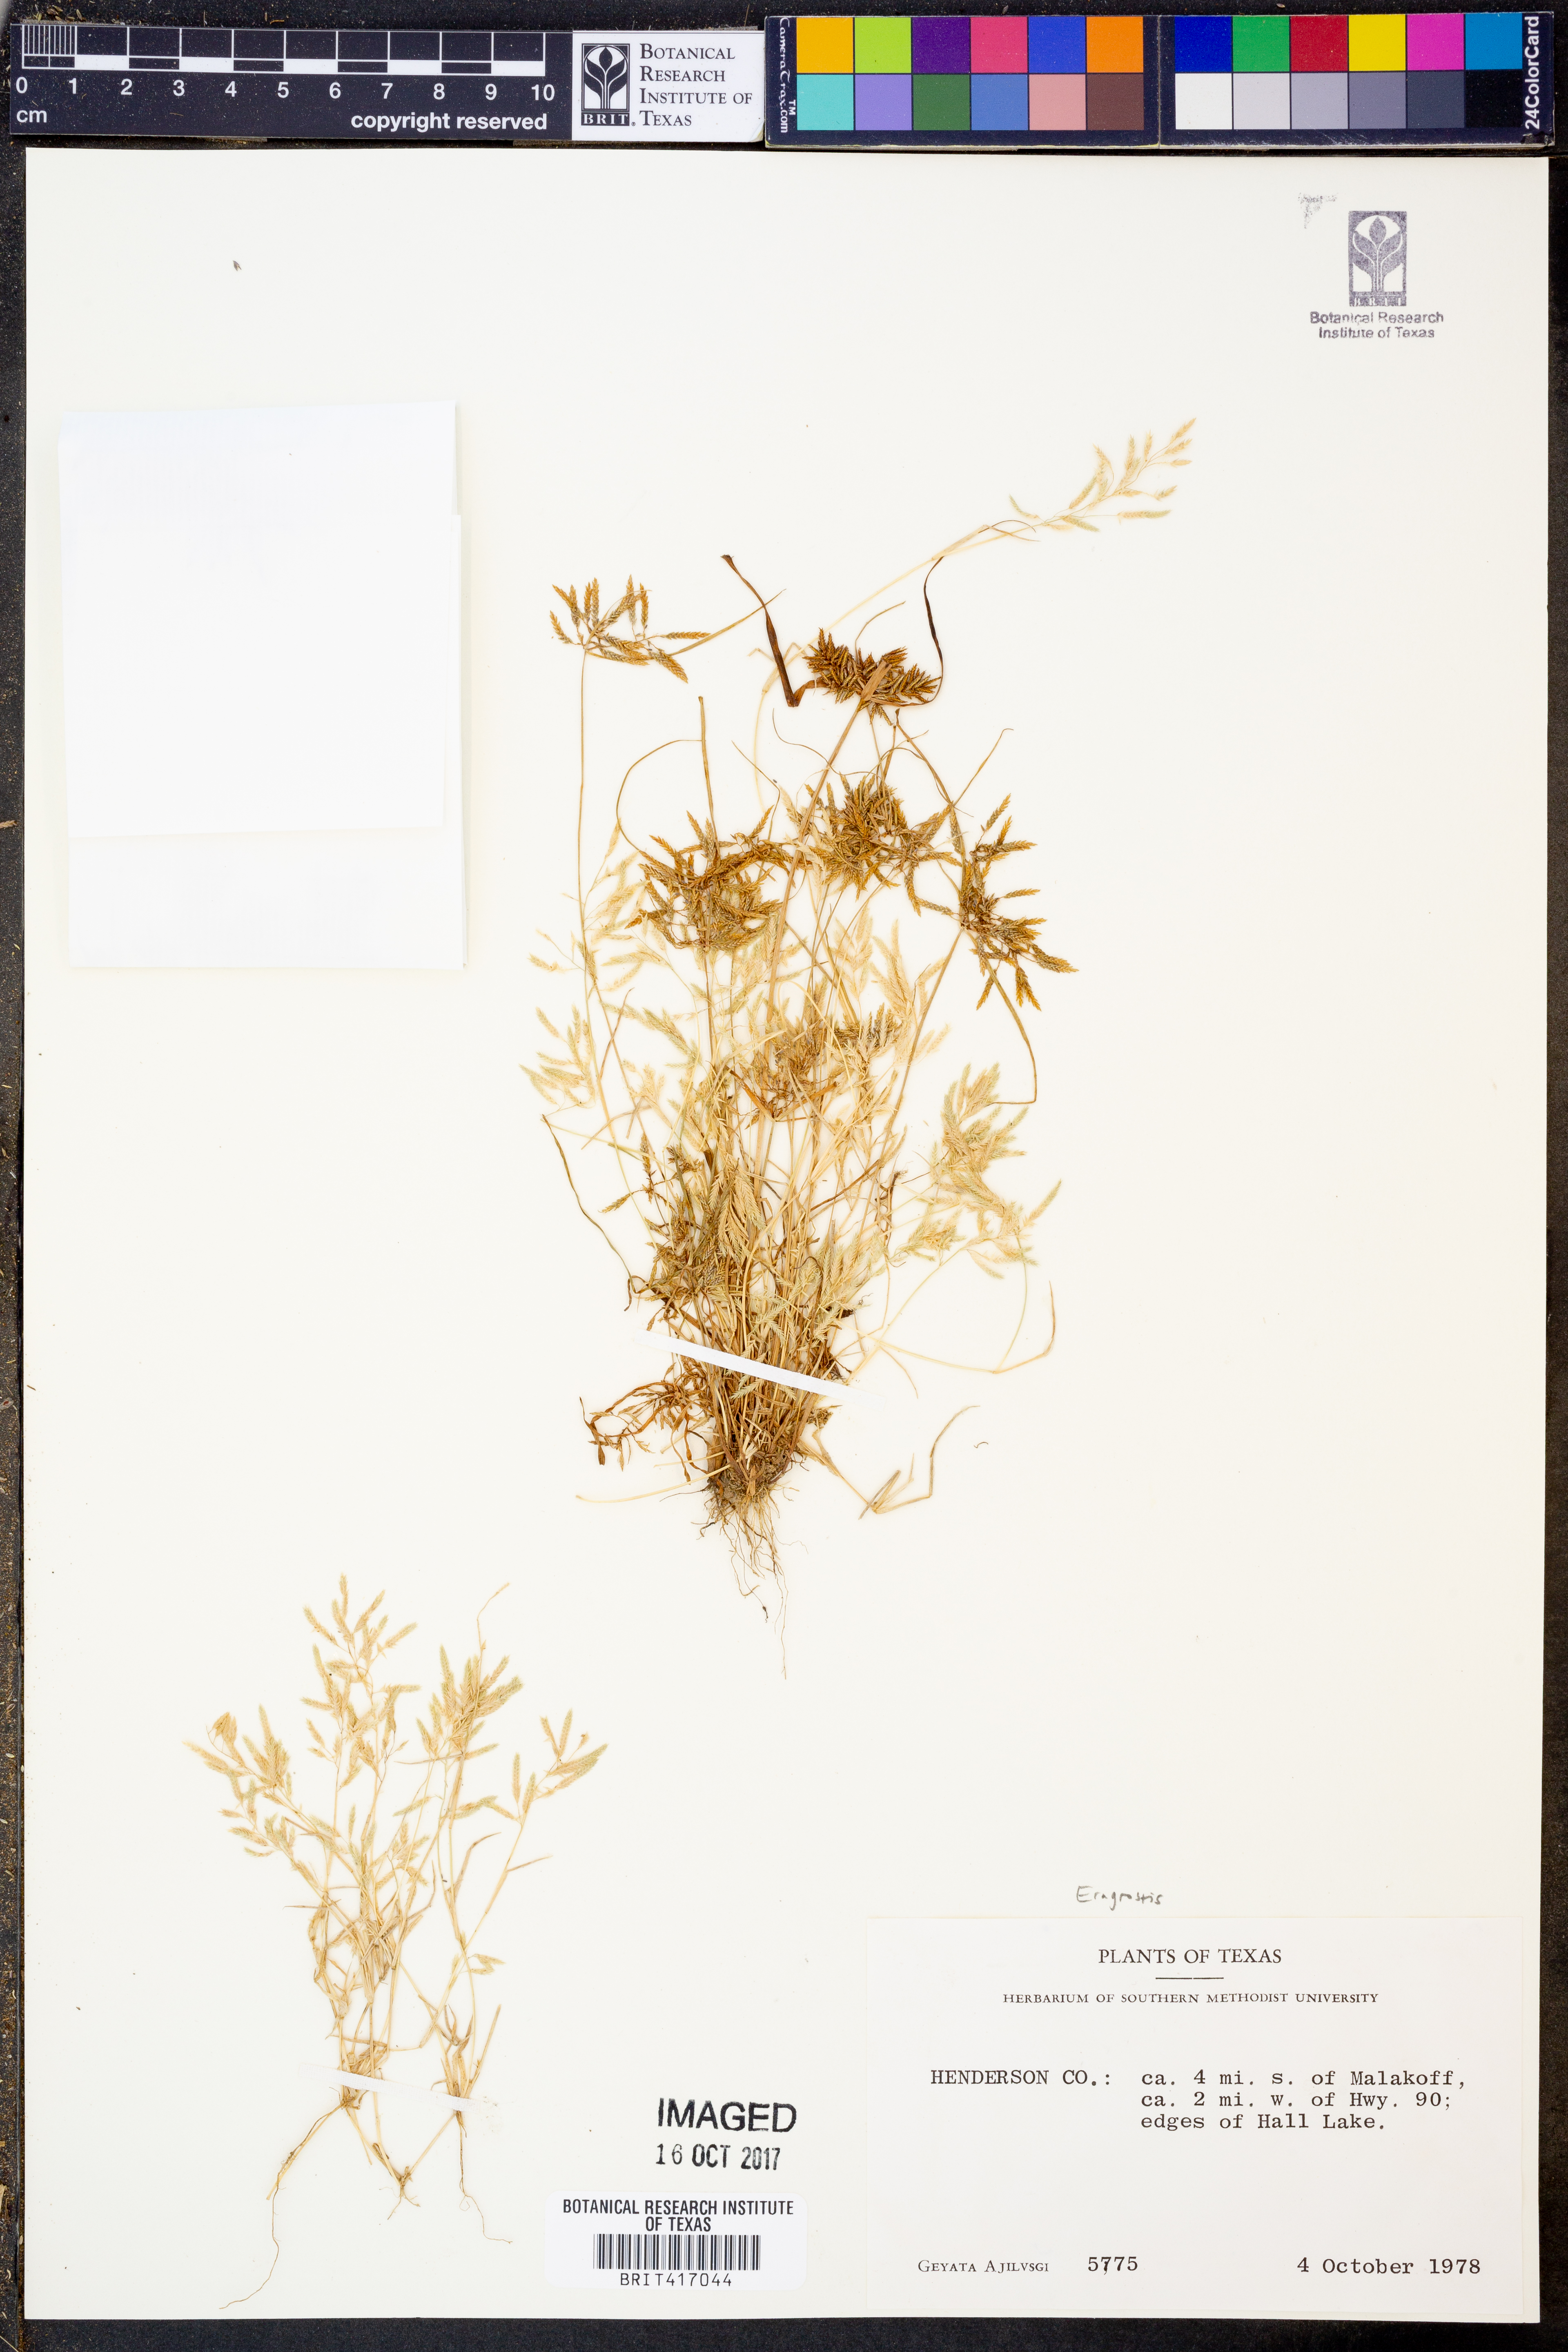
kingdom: Plantae
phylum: Tracheophyta
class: Liliopsida
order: Poales
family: Poaceae
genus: Eragrostis
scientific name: Eragrostis
